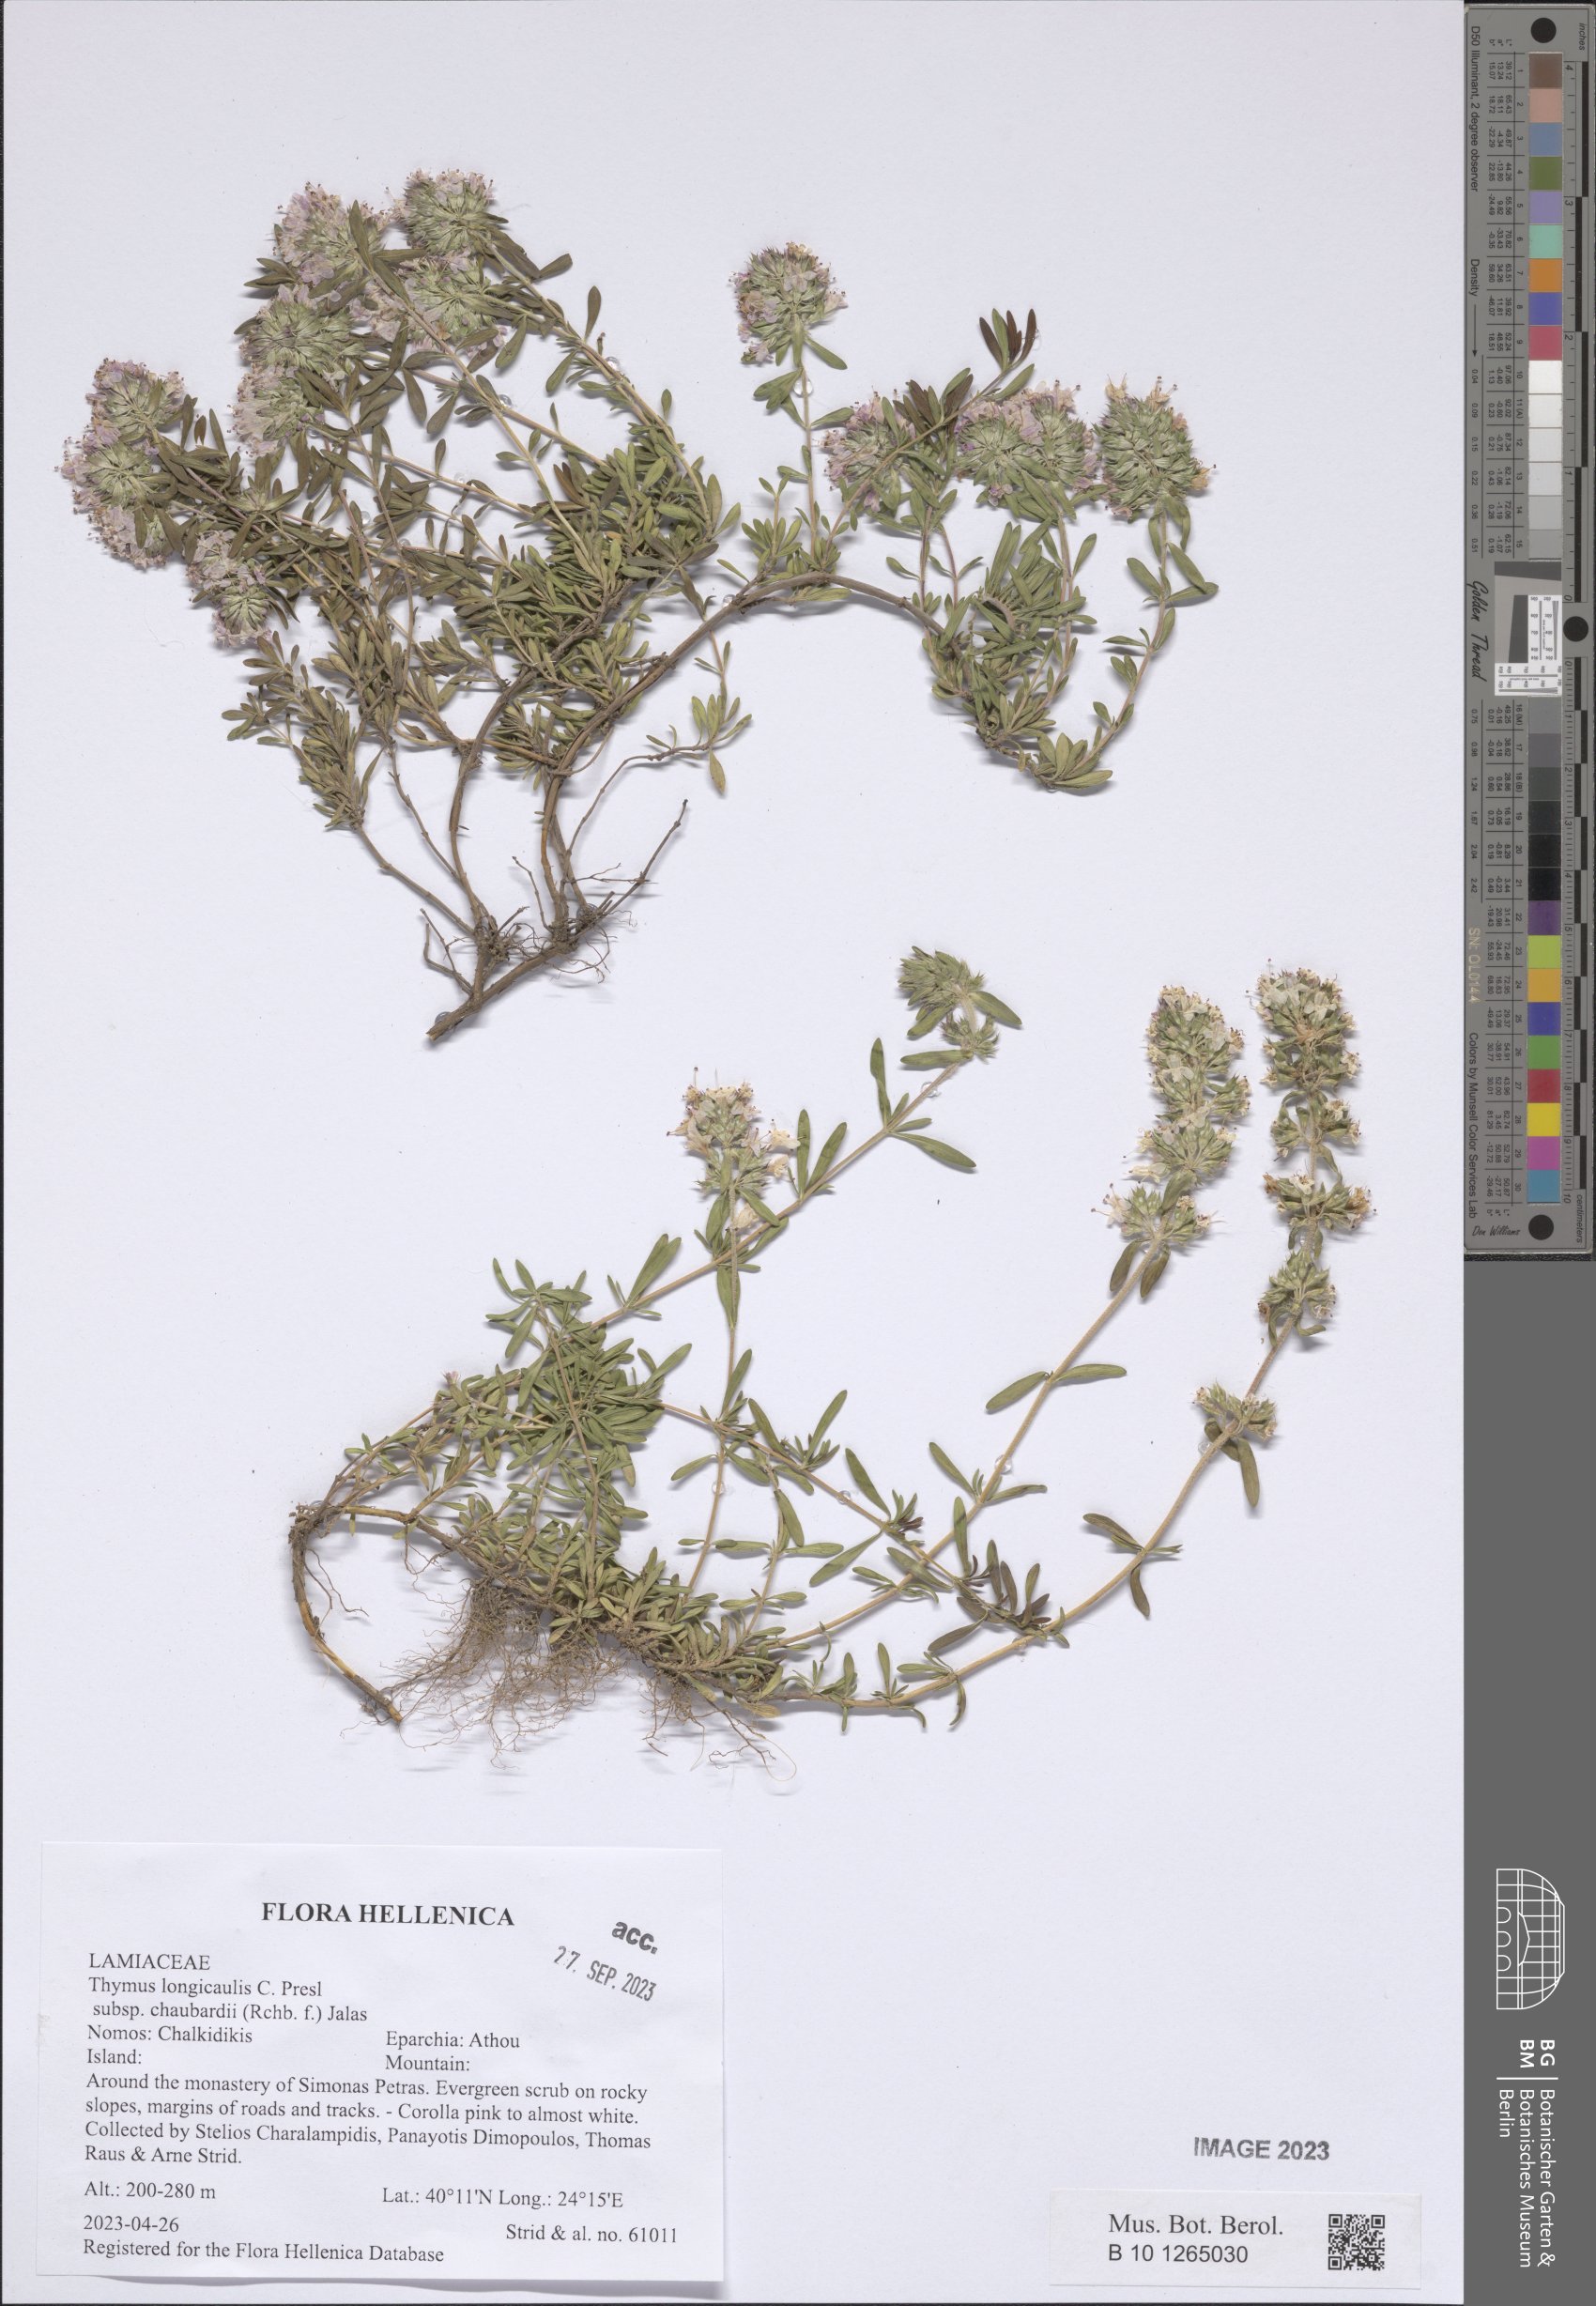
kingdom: Plantae
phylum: Tracheophyta
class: Magnoliopsida
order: Lamiales
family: Lamiaceae
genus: Thymus
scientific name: Thymus longicaulis
